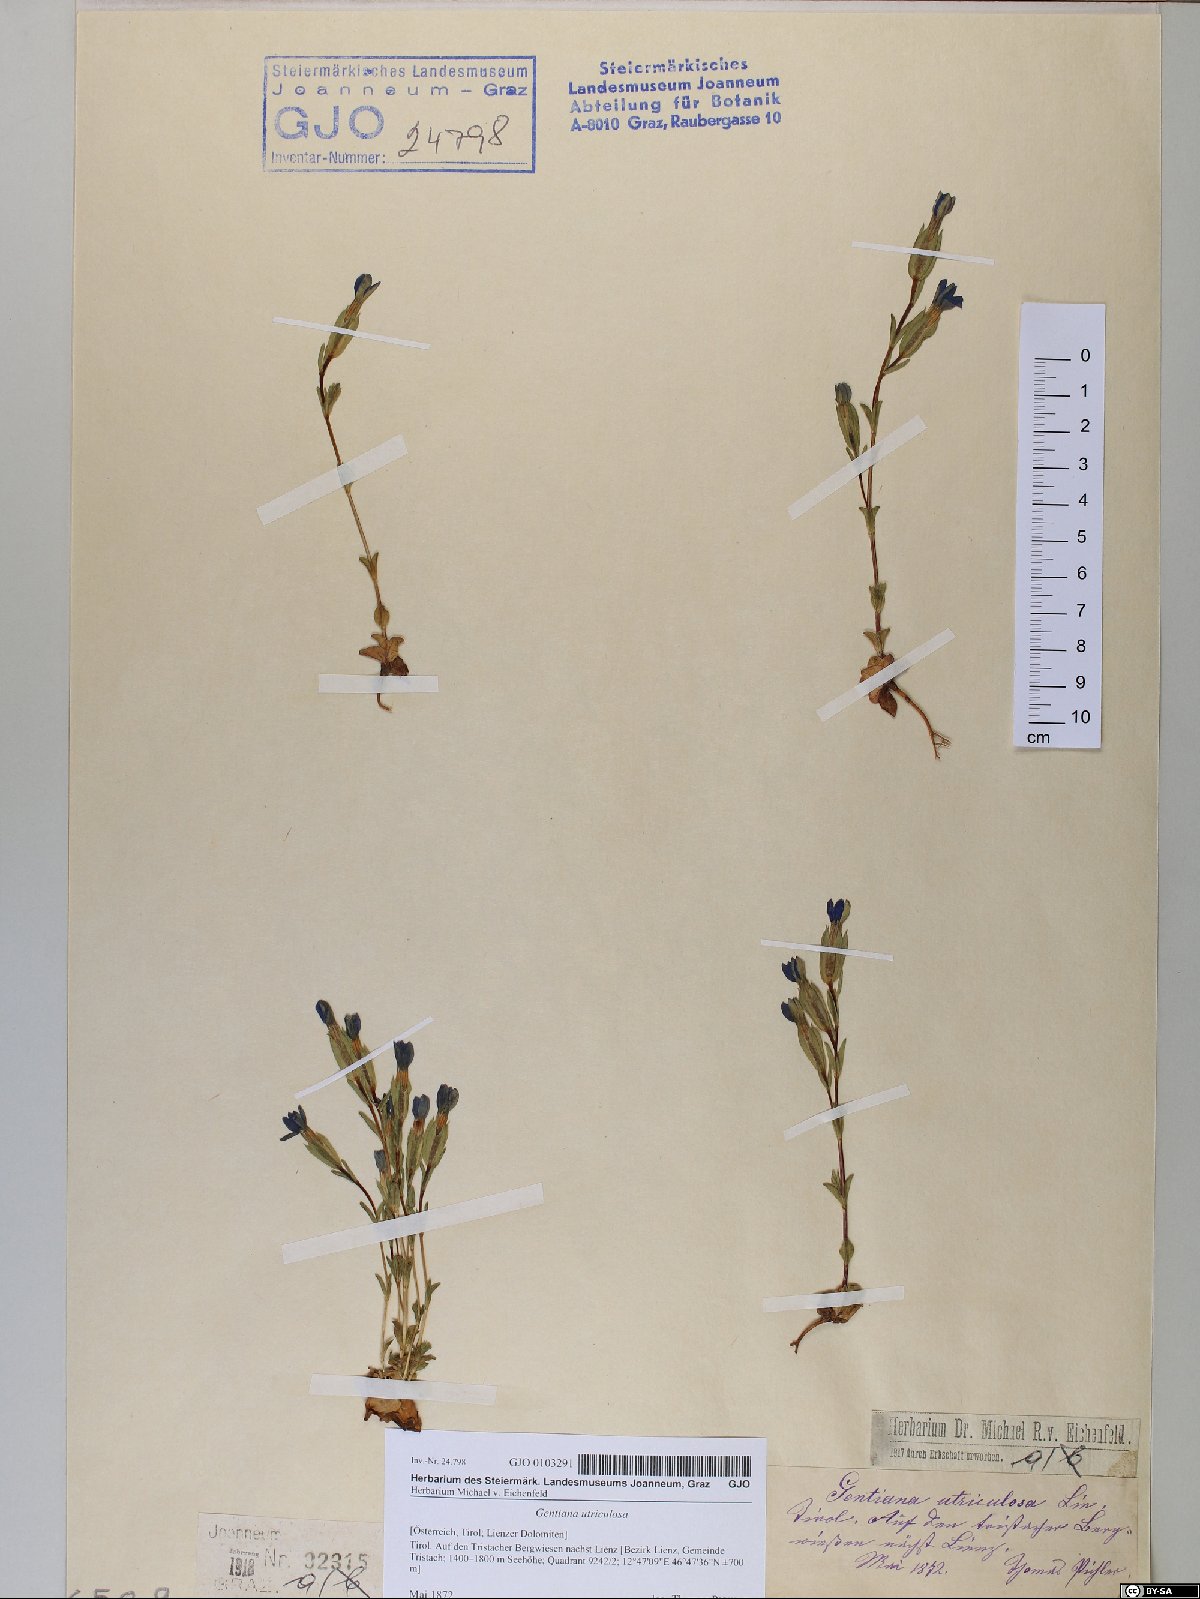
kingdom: Plantae
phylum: Tracheophyta
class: Magnoliopsida
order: Gentianales
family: Gentianaceae
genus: Gentiana
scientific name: Gentiana utriculosa
